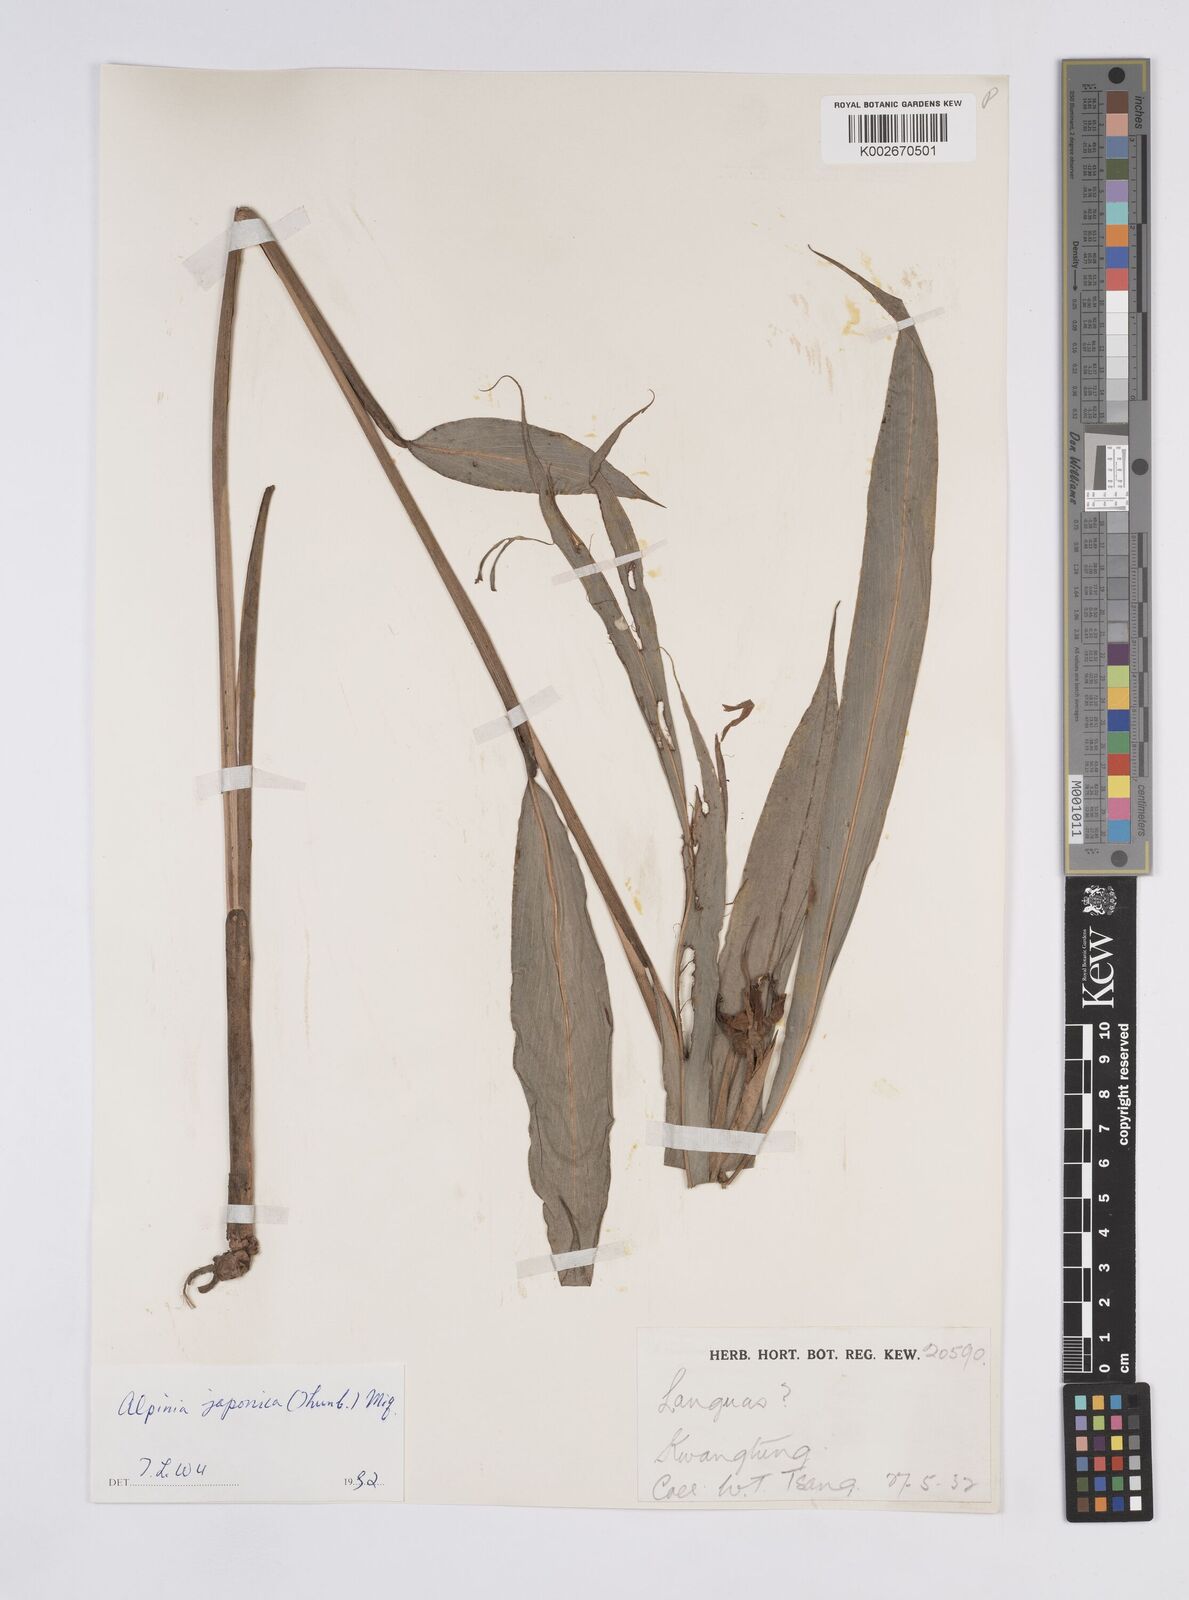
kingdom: Plantae
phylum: Tracheophyta
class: Liliopsida
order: Zingiberales
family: Zingiberaceae
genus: Alpinia
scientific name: Alpinia japonica
